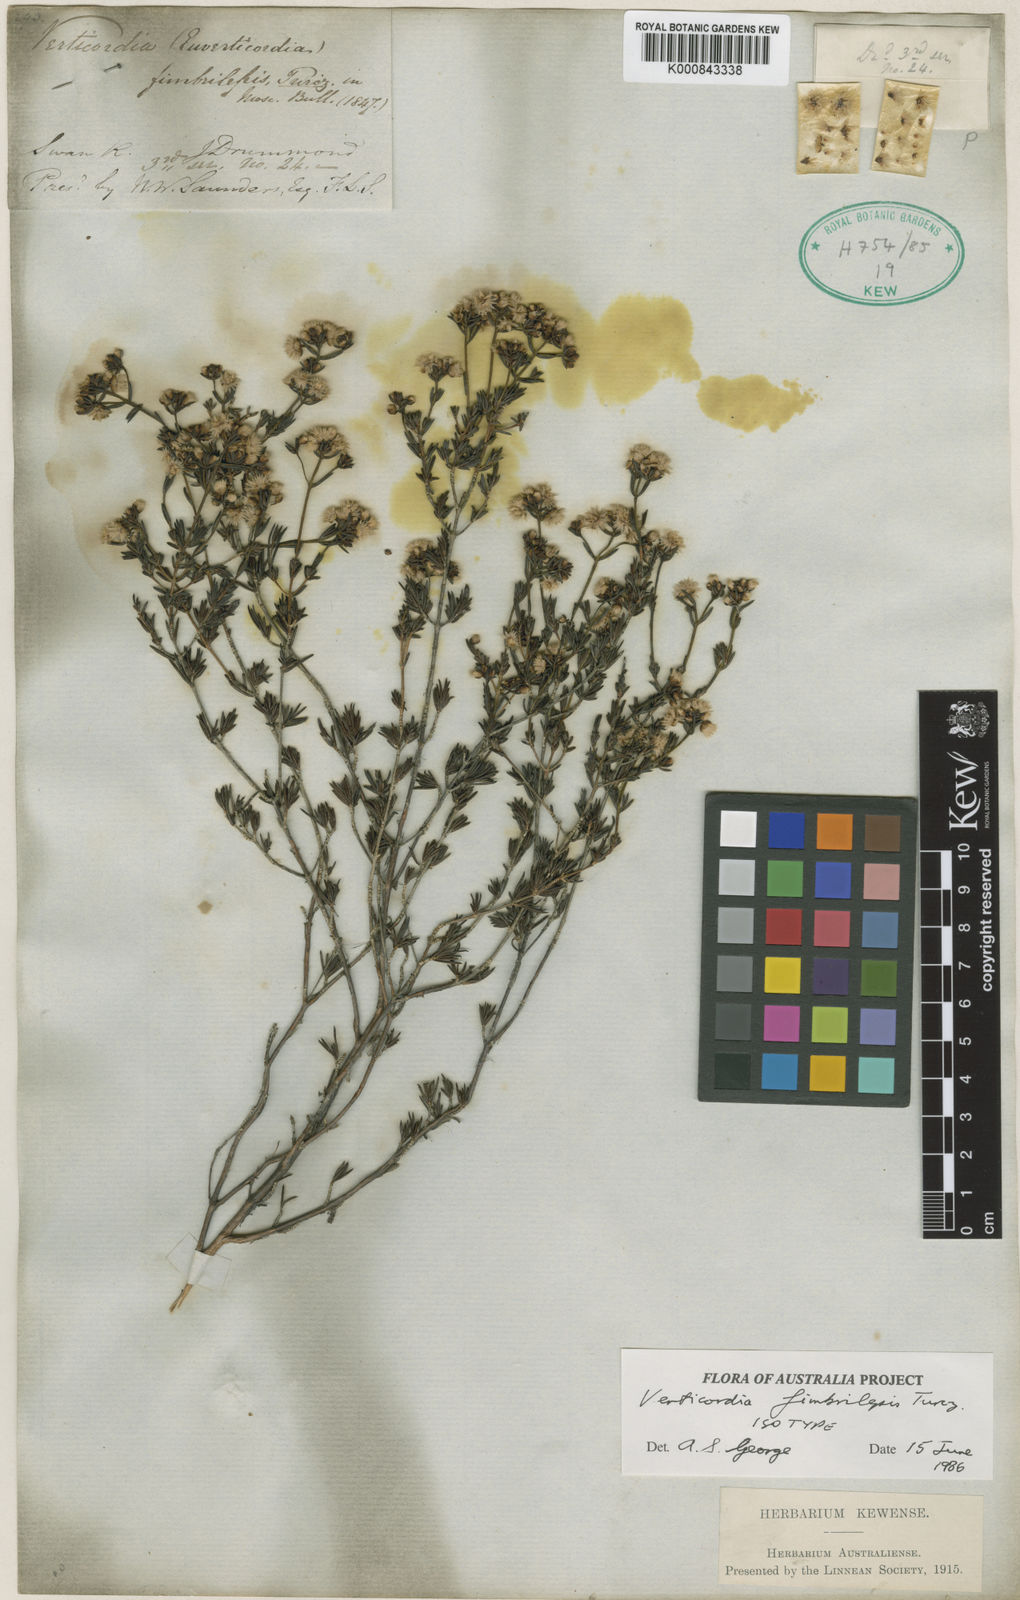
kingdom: Plantae
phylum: Tracheophyta
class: Magnoliopsida
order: Myrtales
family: Myrtaceae
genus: Verticordia
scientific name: Verticordia fimbrilepis
